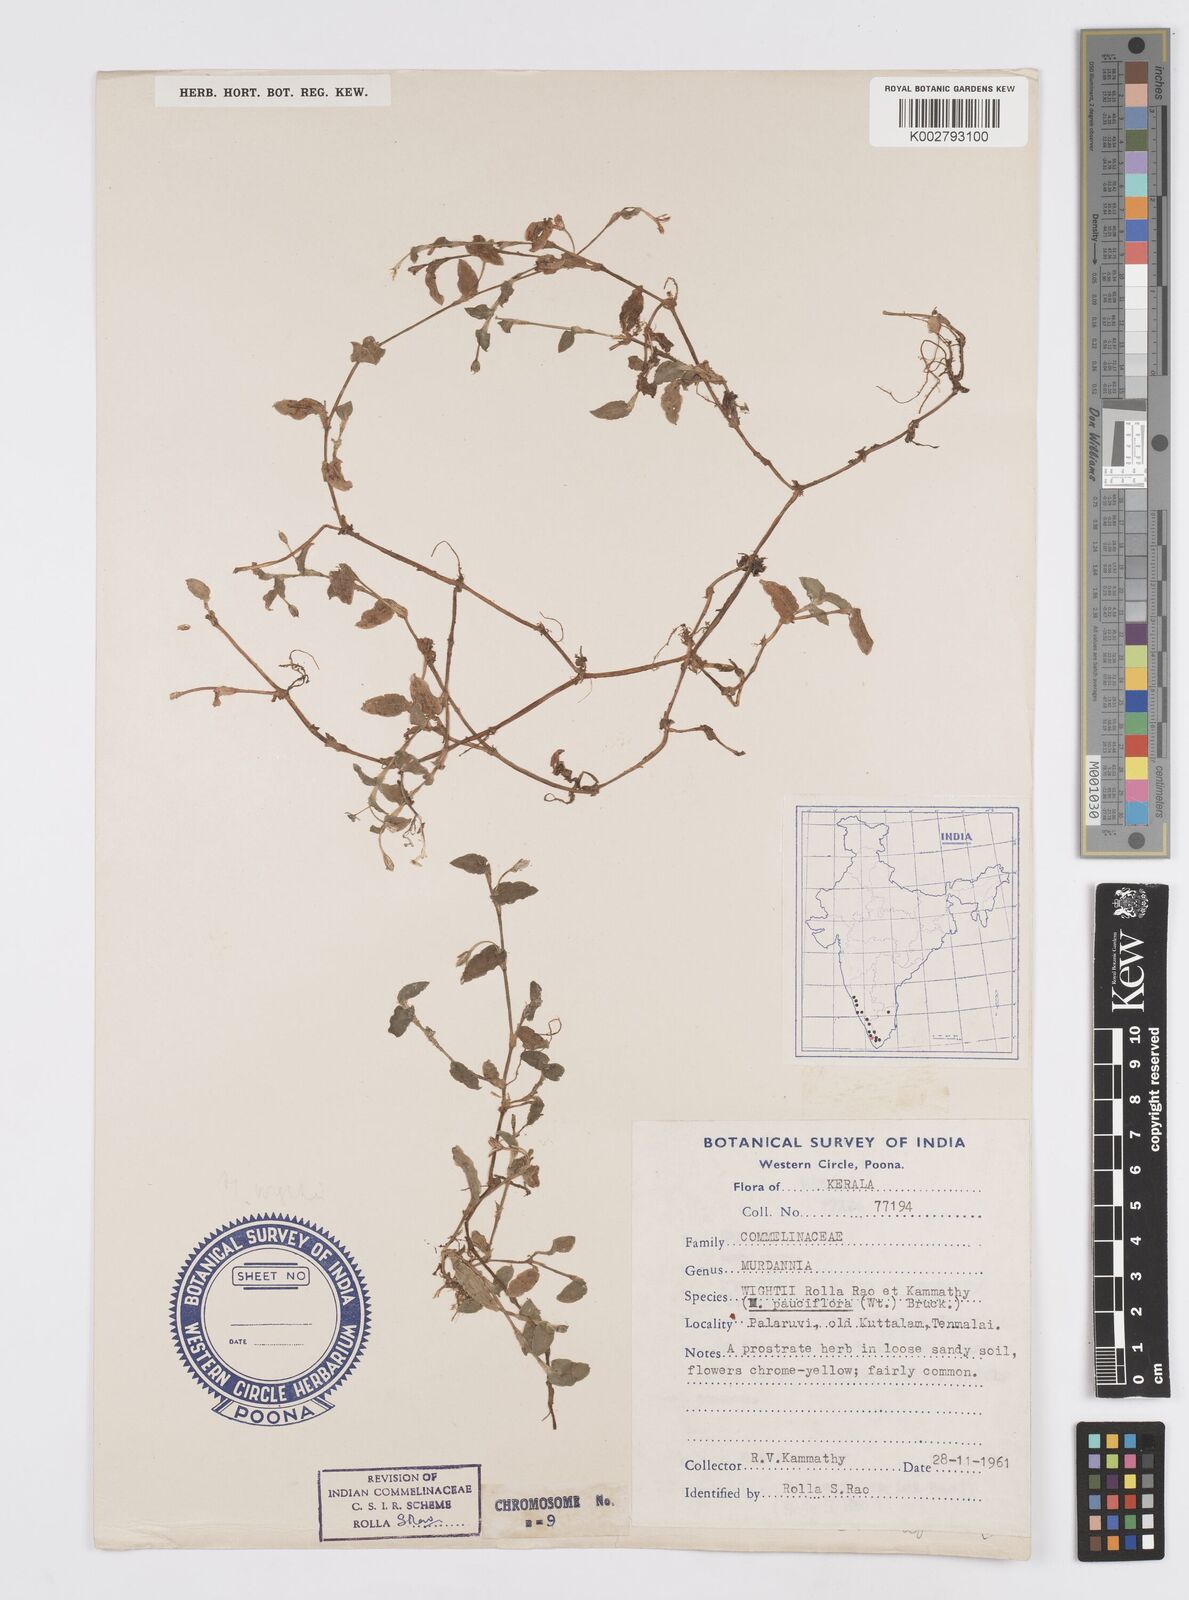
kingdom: Plantae
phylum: Tracheophyta
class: Liliopsida
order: Commelinales
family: Commelinaceae
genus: Murdannia
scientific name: Murdannia pauciflora
